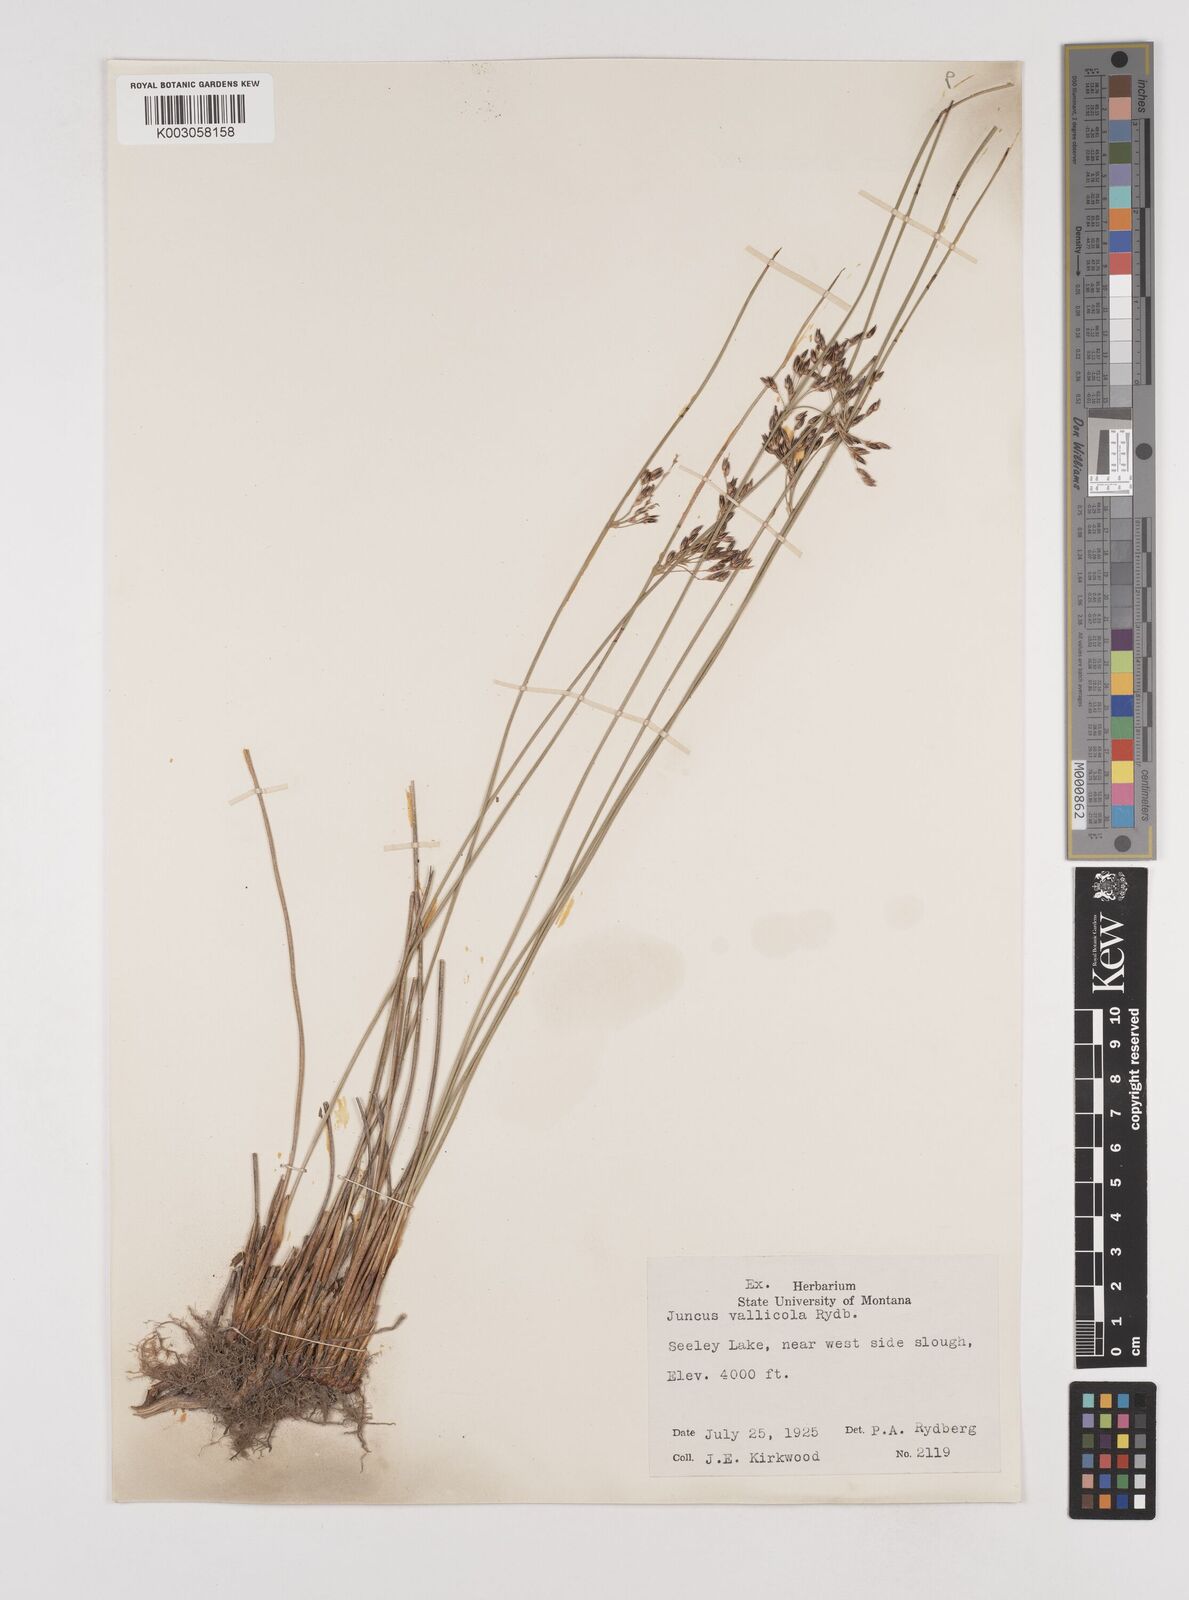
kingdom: Plantae
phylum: Tracheophyta
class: Liliopsida
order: Poales
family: Juncaceae
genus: Juncus
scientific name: Juncus balticus
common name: Baltic rush
